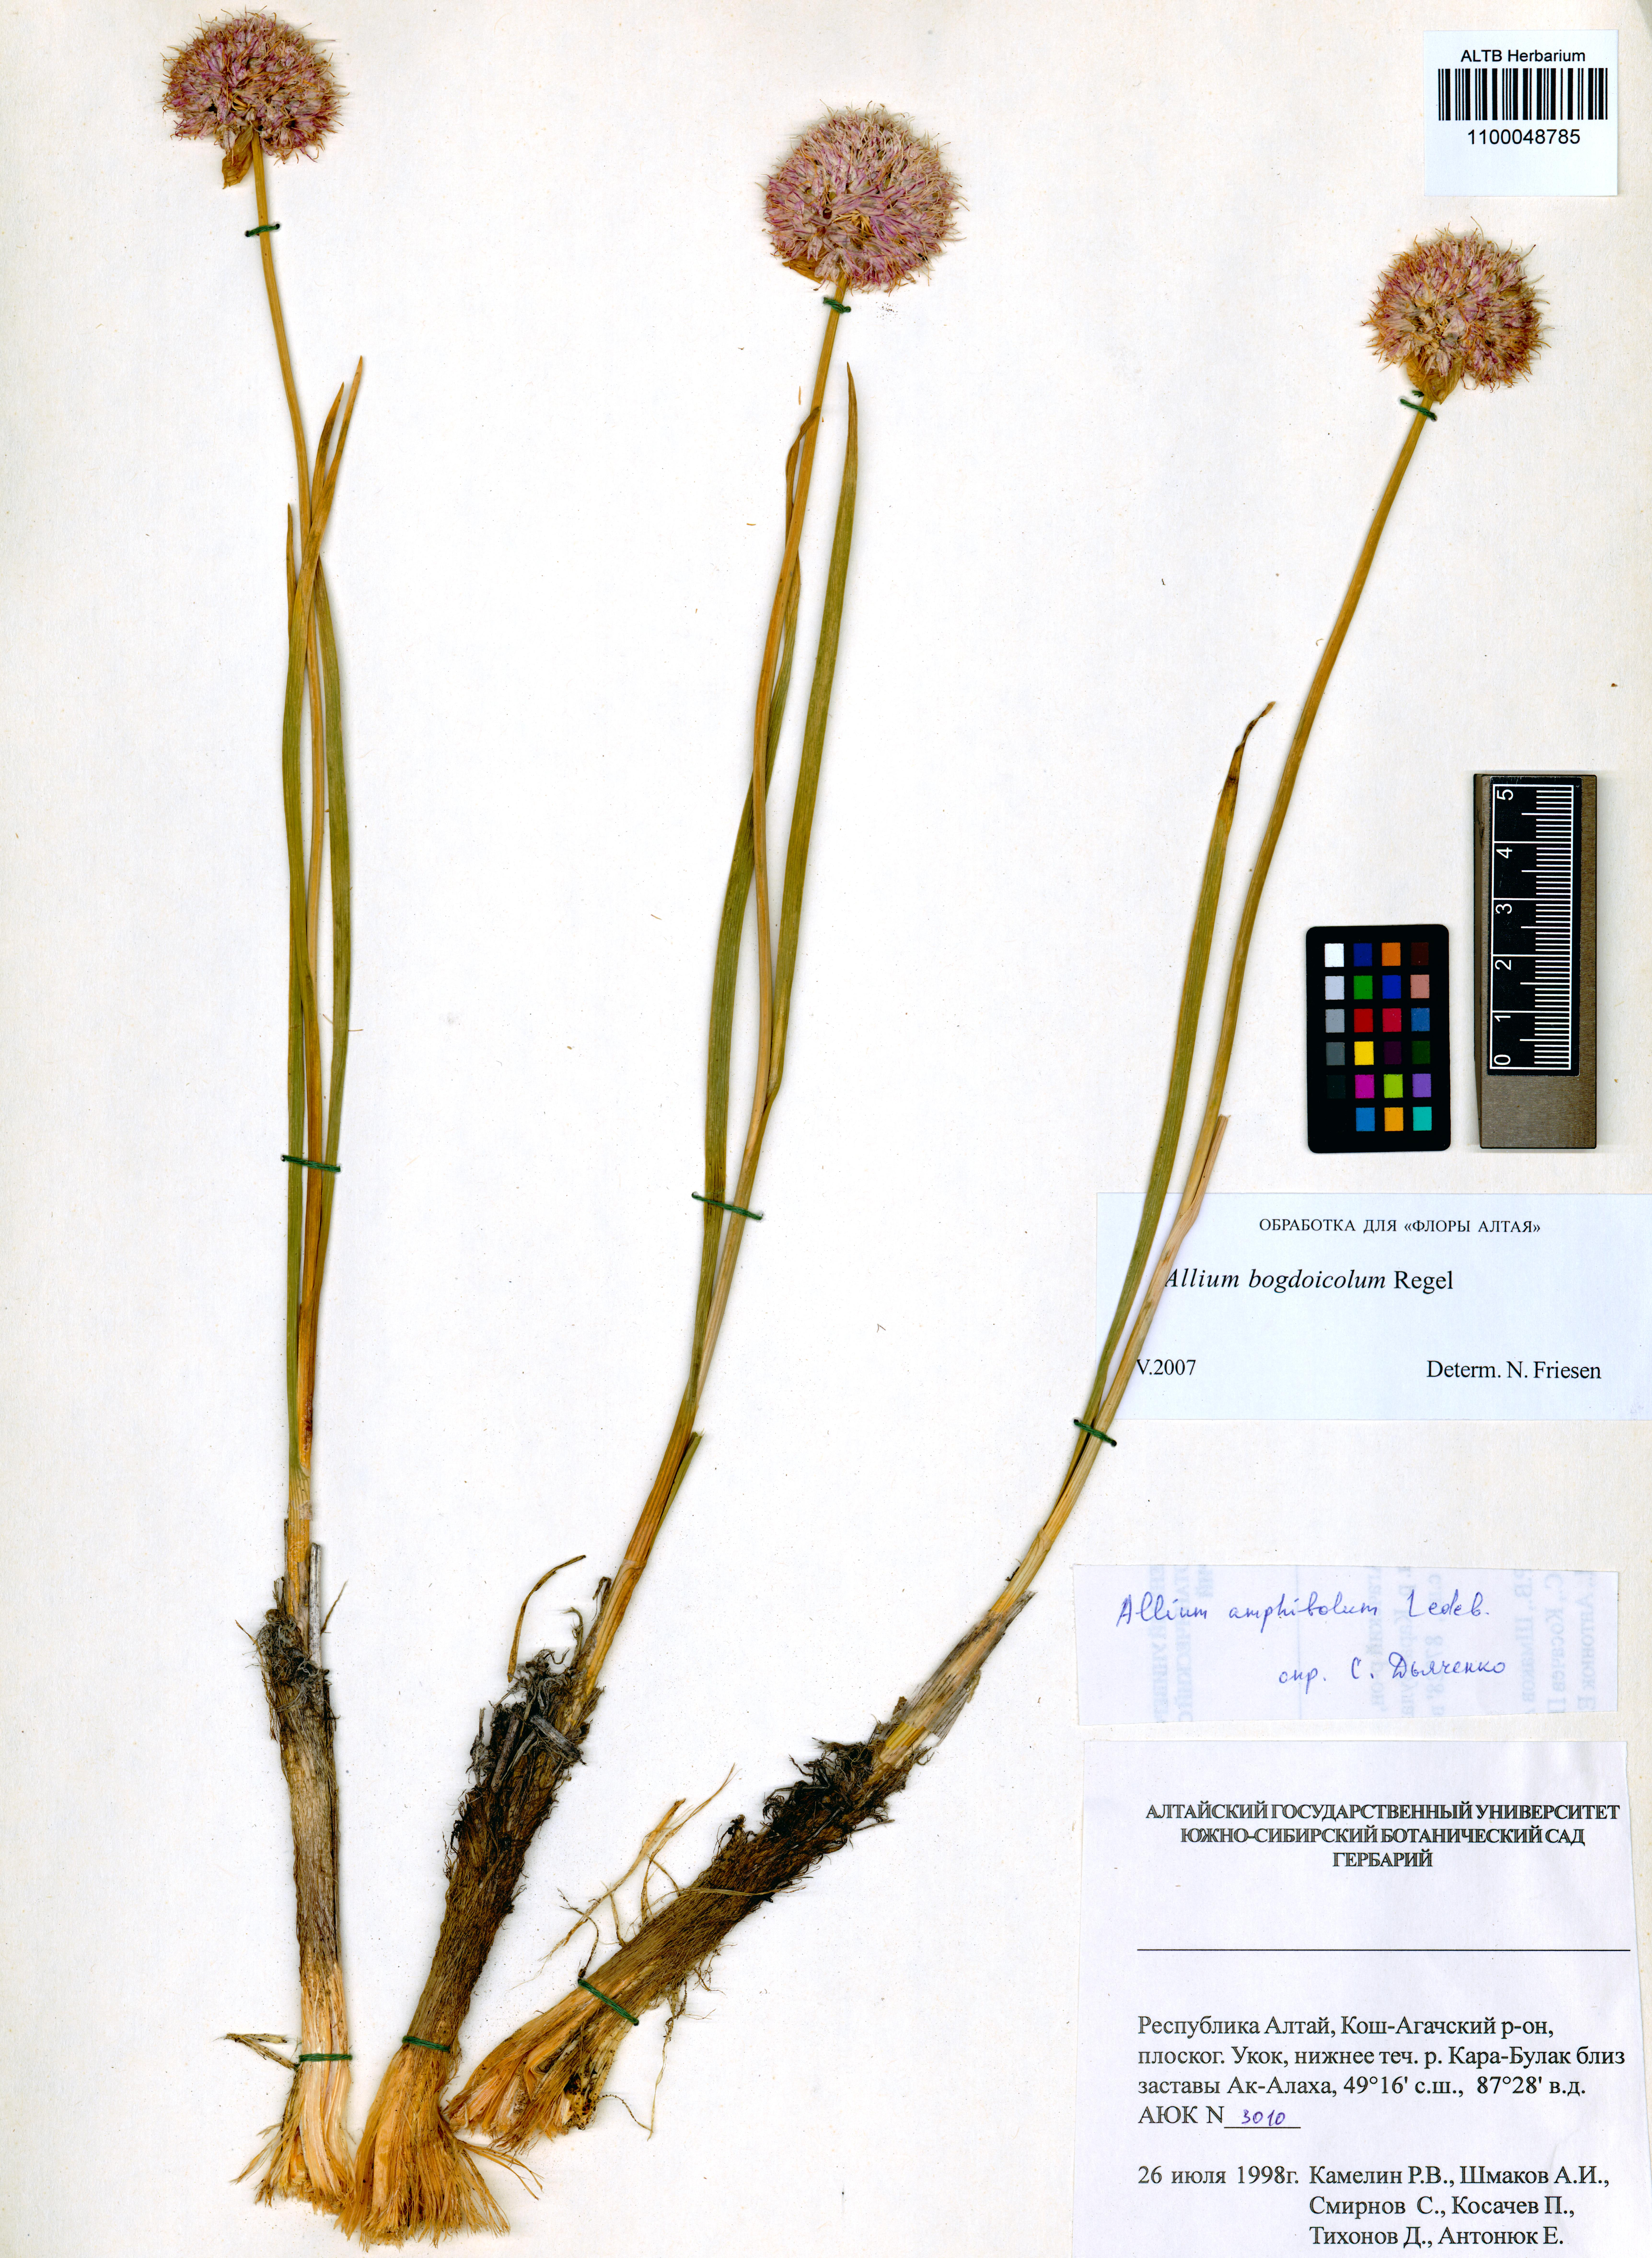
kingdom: Plantae
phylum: Tracheophyta
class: Liliopsida
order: Asparagales
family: Amaryllidaceae
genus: Allium
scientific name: Allium schrenkii
